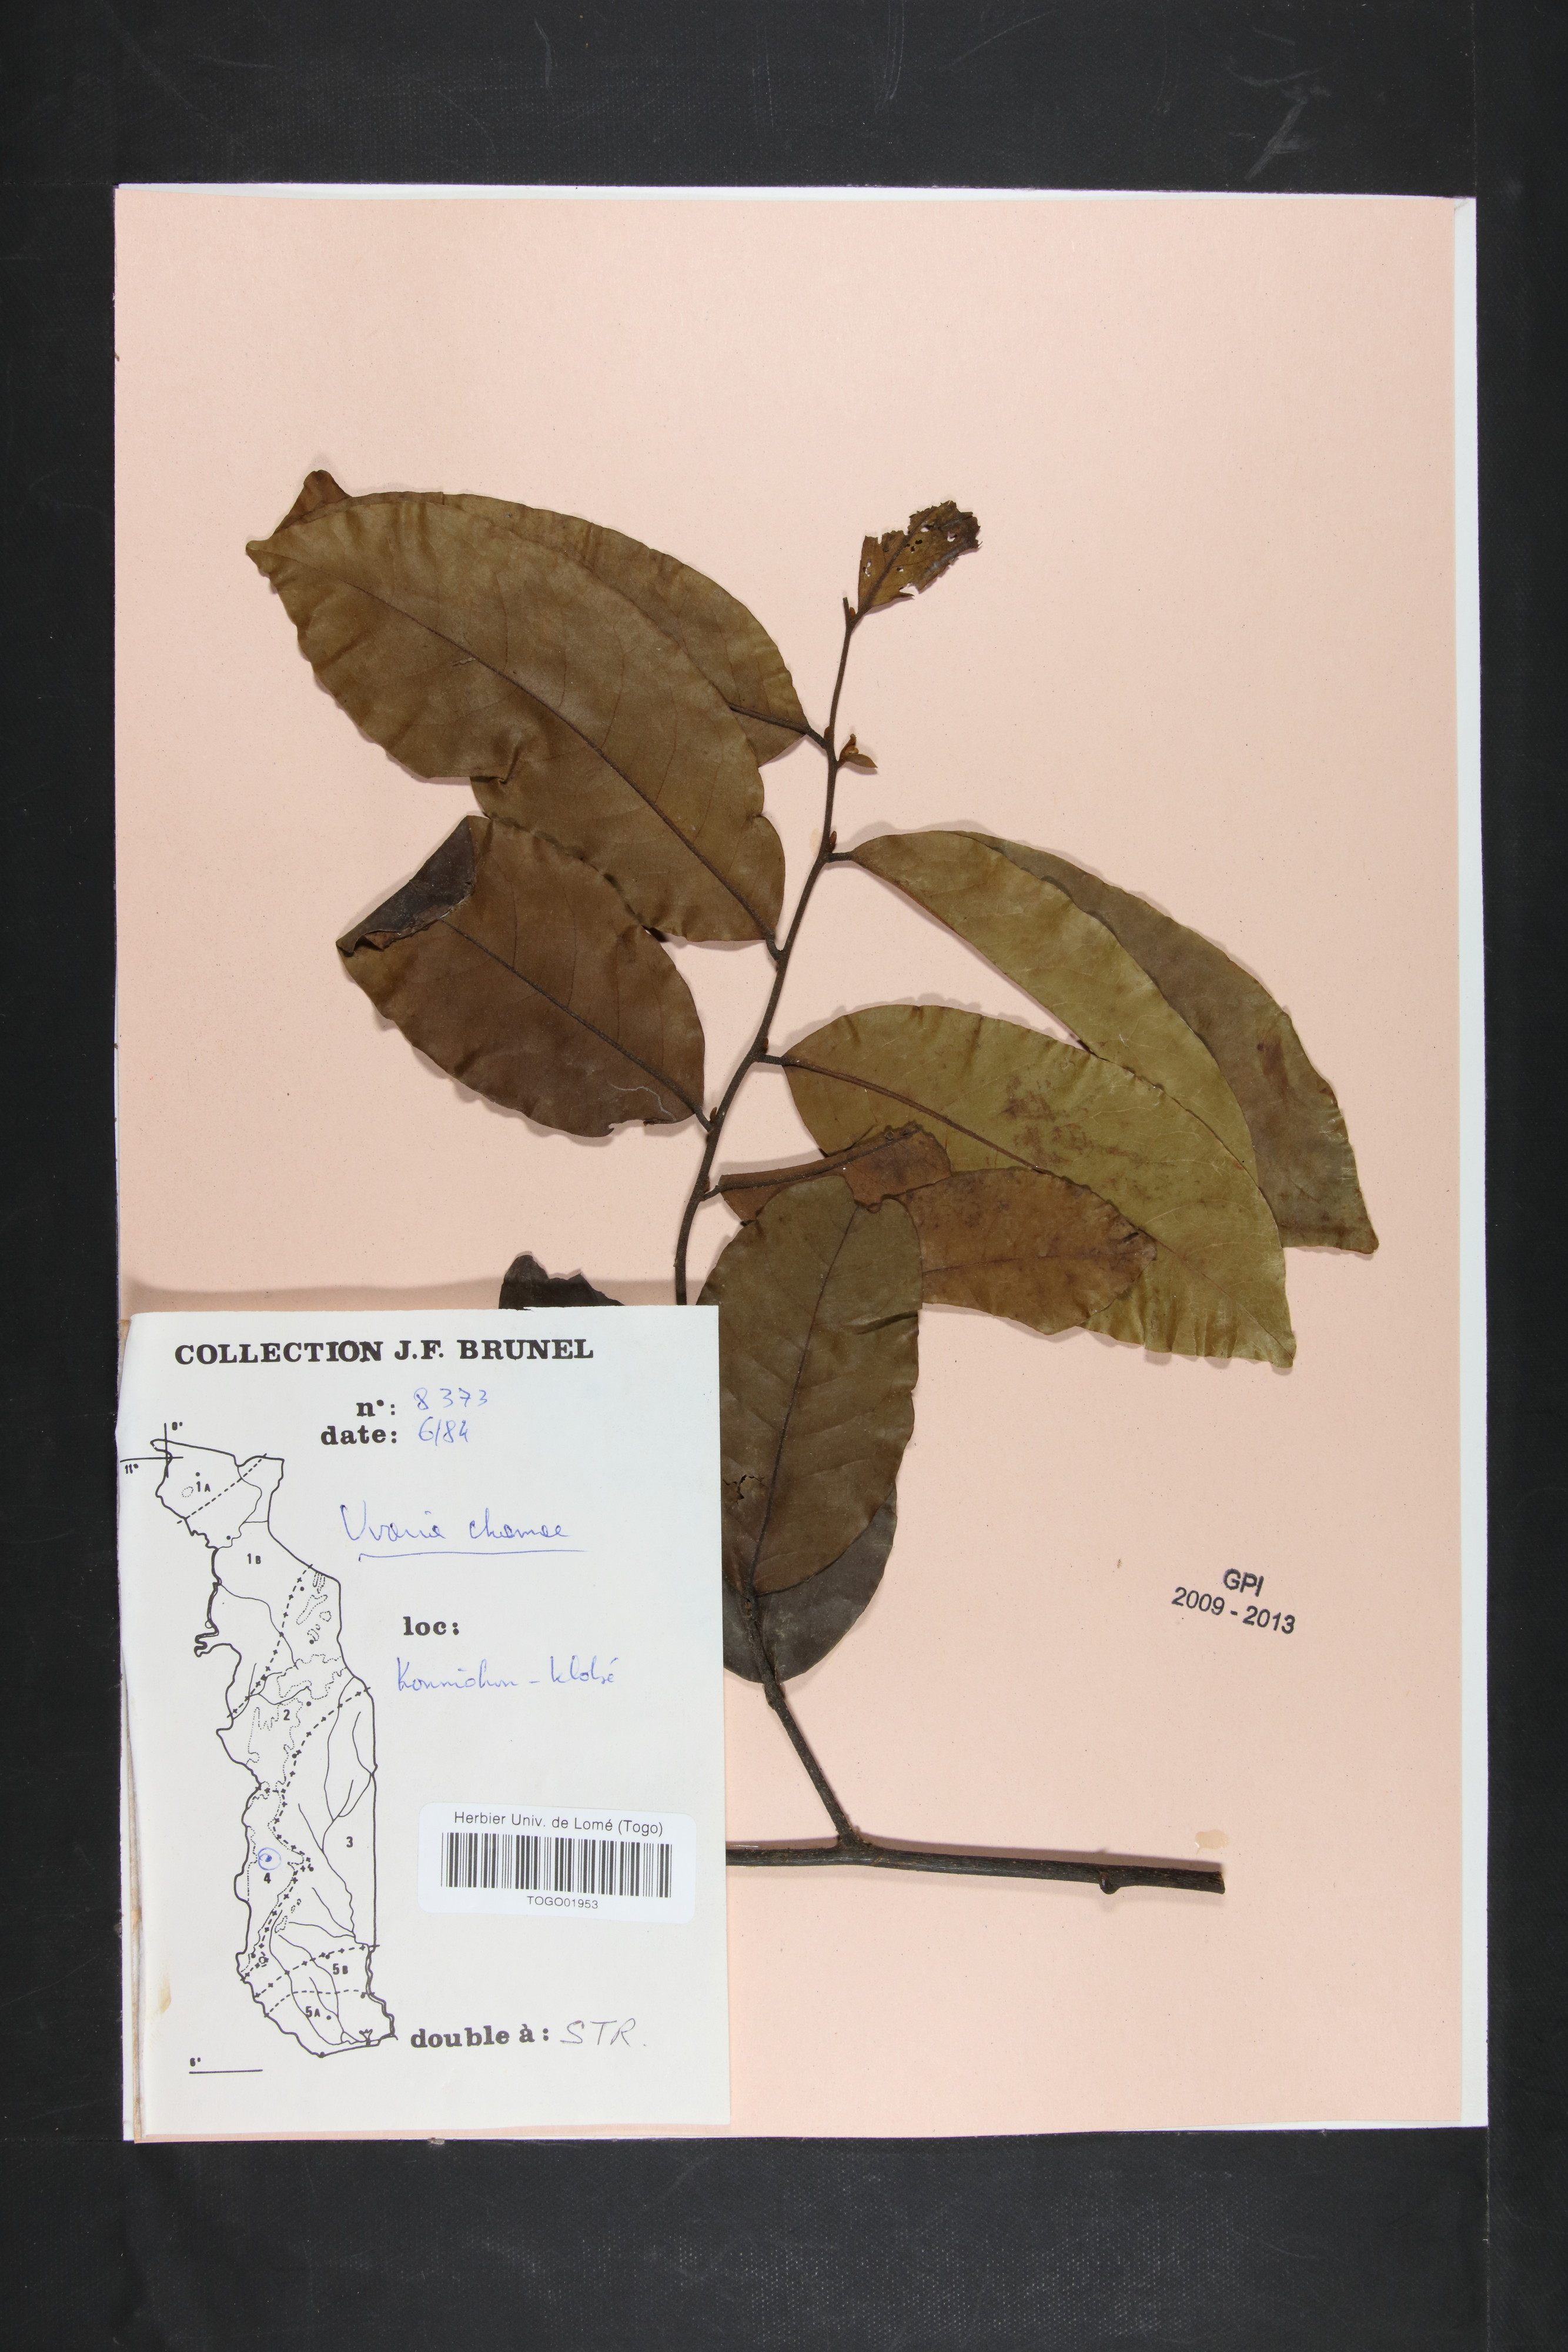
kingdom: Plantae
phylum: Tracheophyta
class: Magnoliopsida
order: Magnoliales
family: Annonaceae
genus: Uvaria
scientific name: Uvaria chamae
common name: Finger-root
